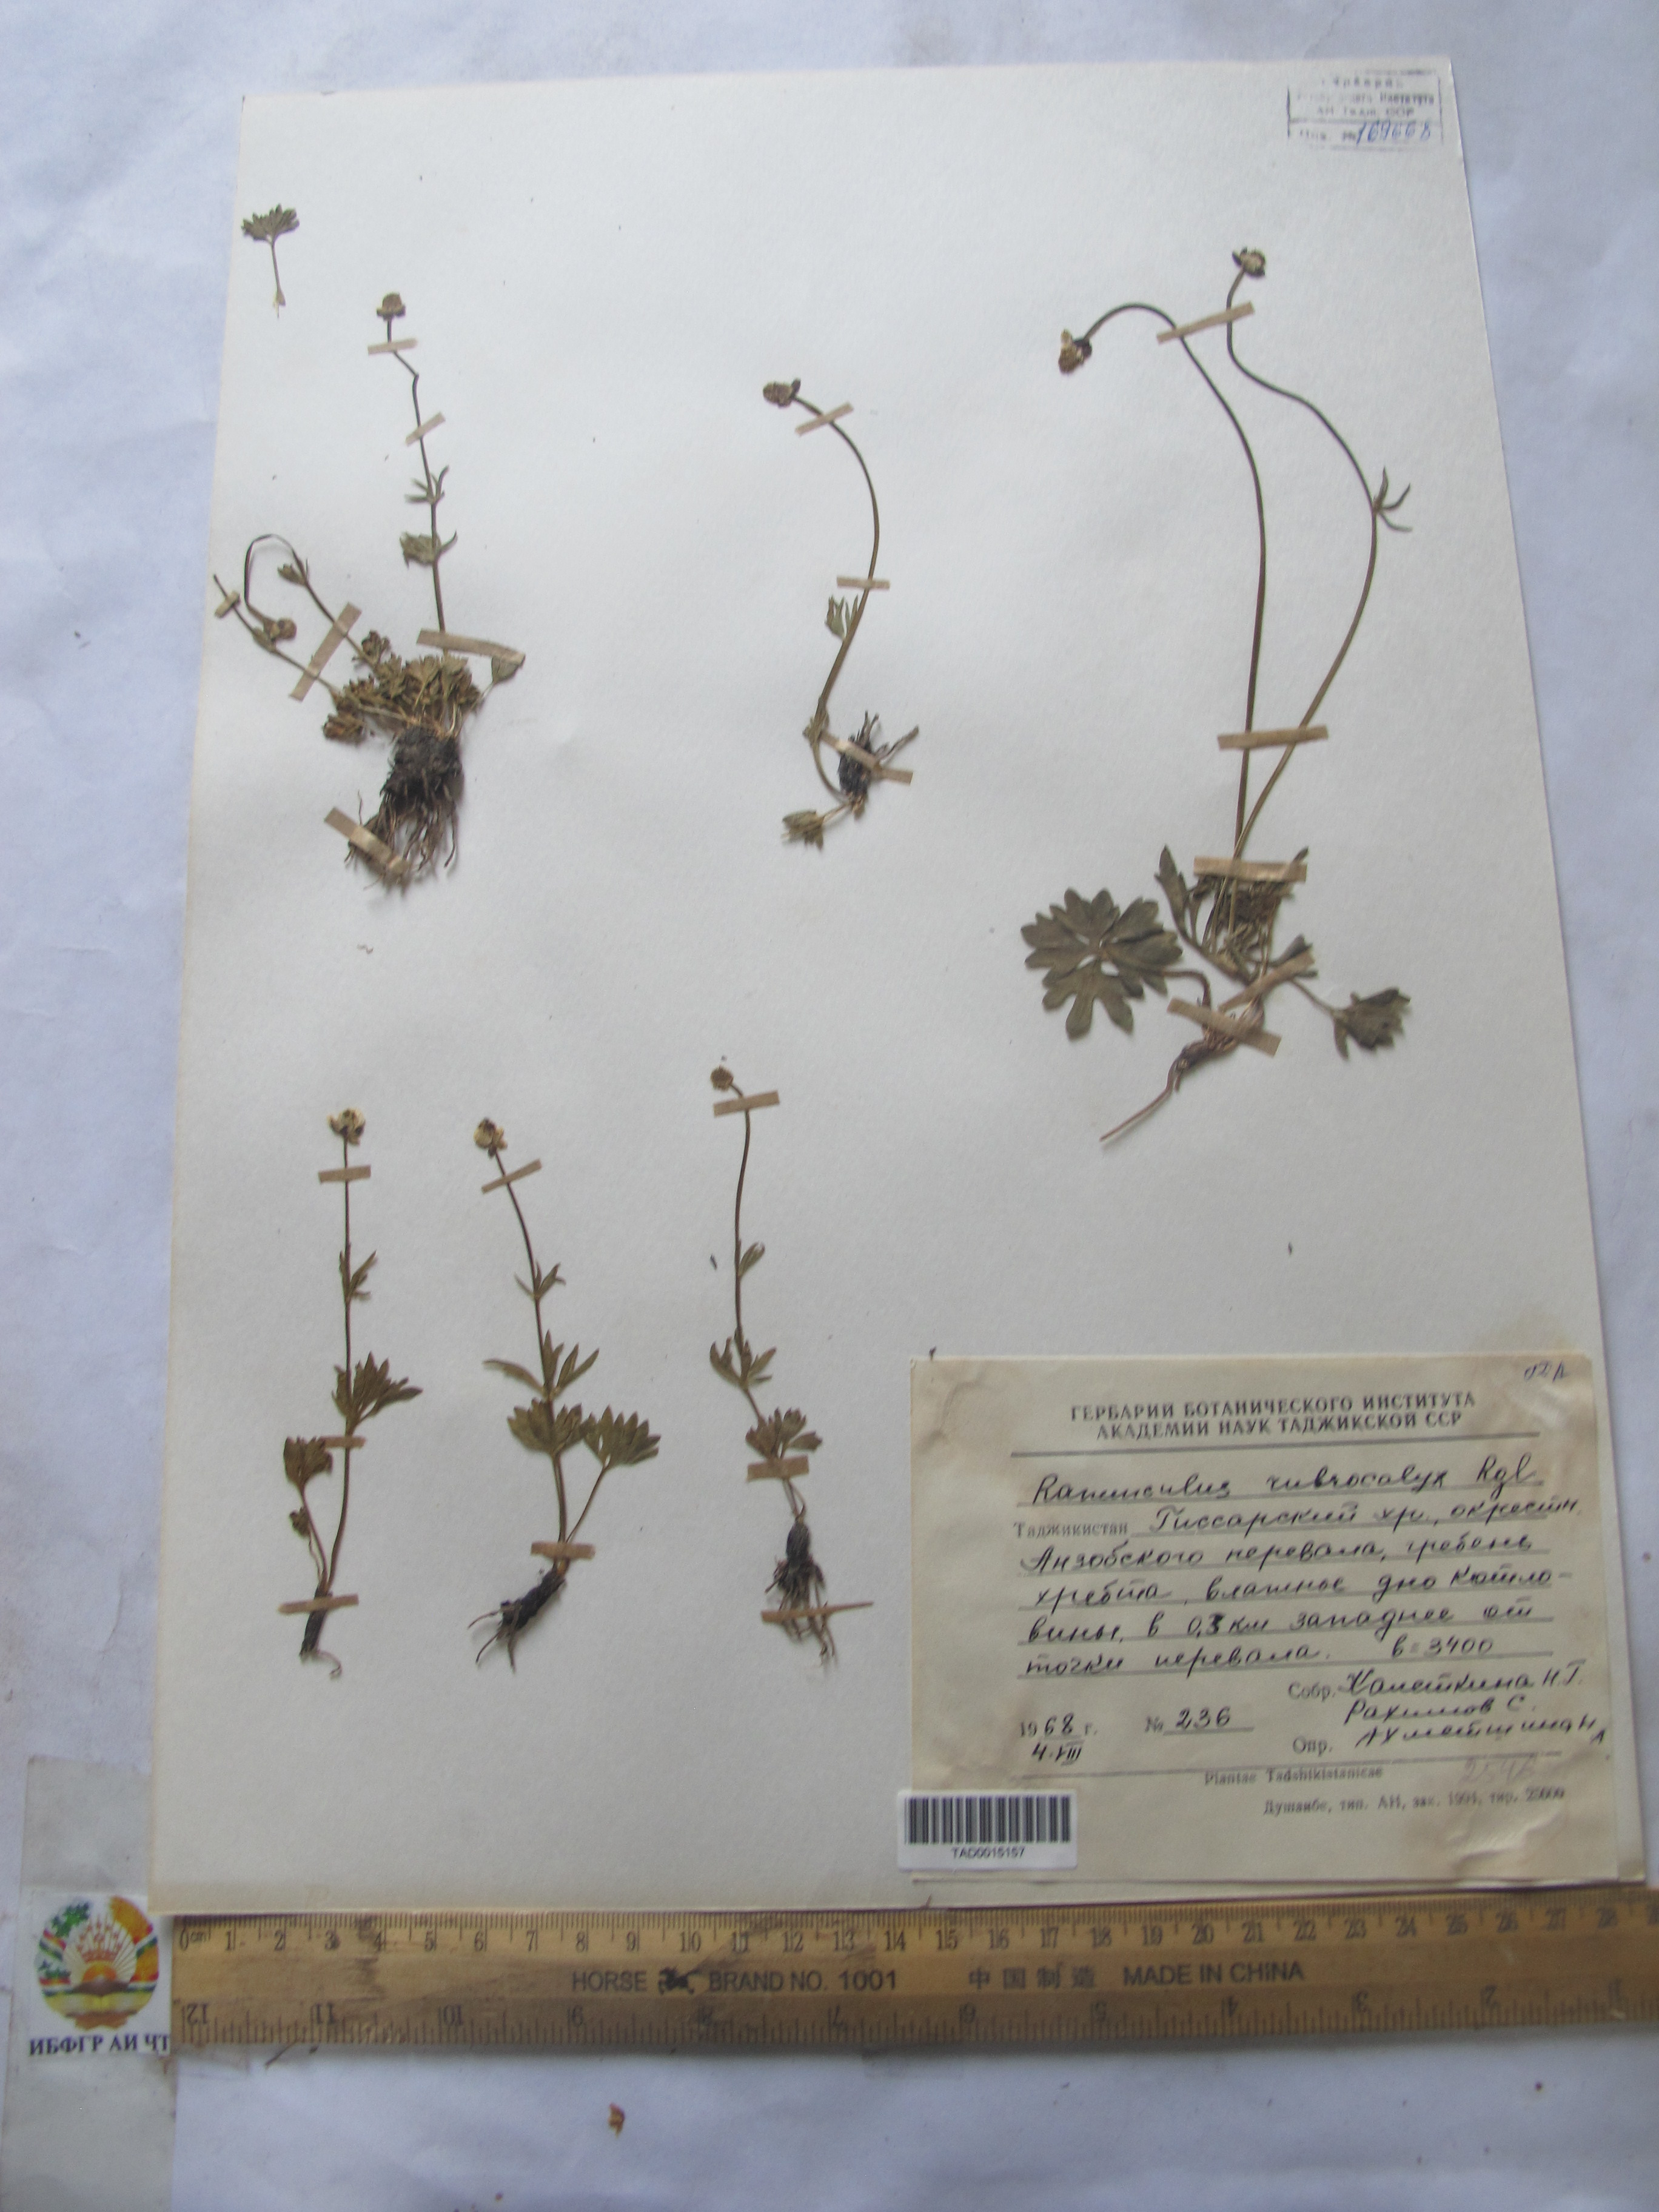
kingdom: Plantae
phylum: Tracheophyta
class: Magnoliopsida
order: Ranunculales
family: Ranunculaceae
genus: Ranunculus
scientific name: Ranunculus rubrocalyx
